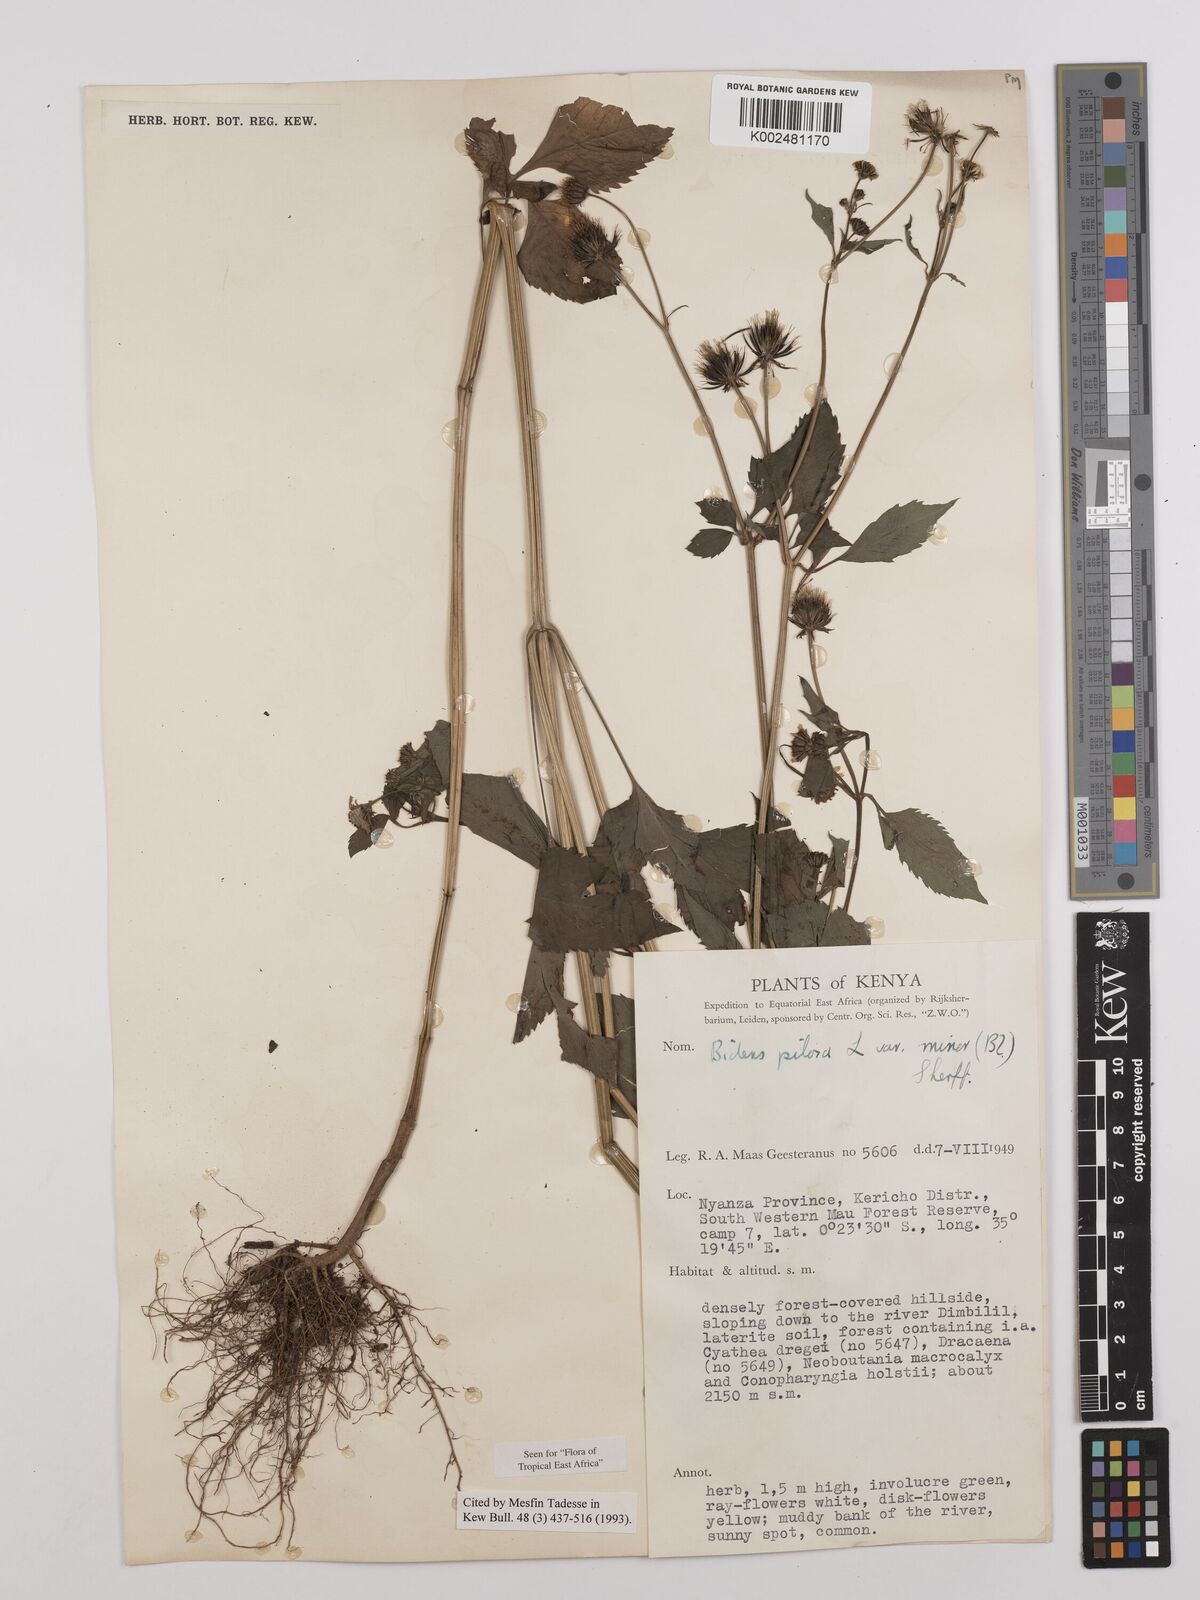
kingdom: Plantae
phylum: Tracheophyta
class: Magnoliopsida
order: Asterales
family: Asteraceae
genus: Bidens
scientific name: Bidens pilosa
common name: Black-jack
